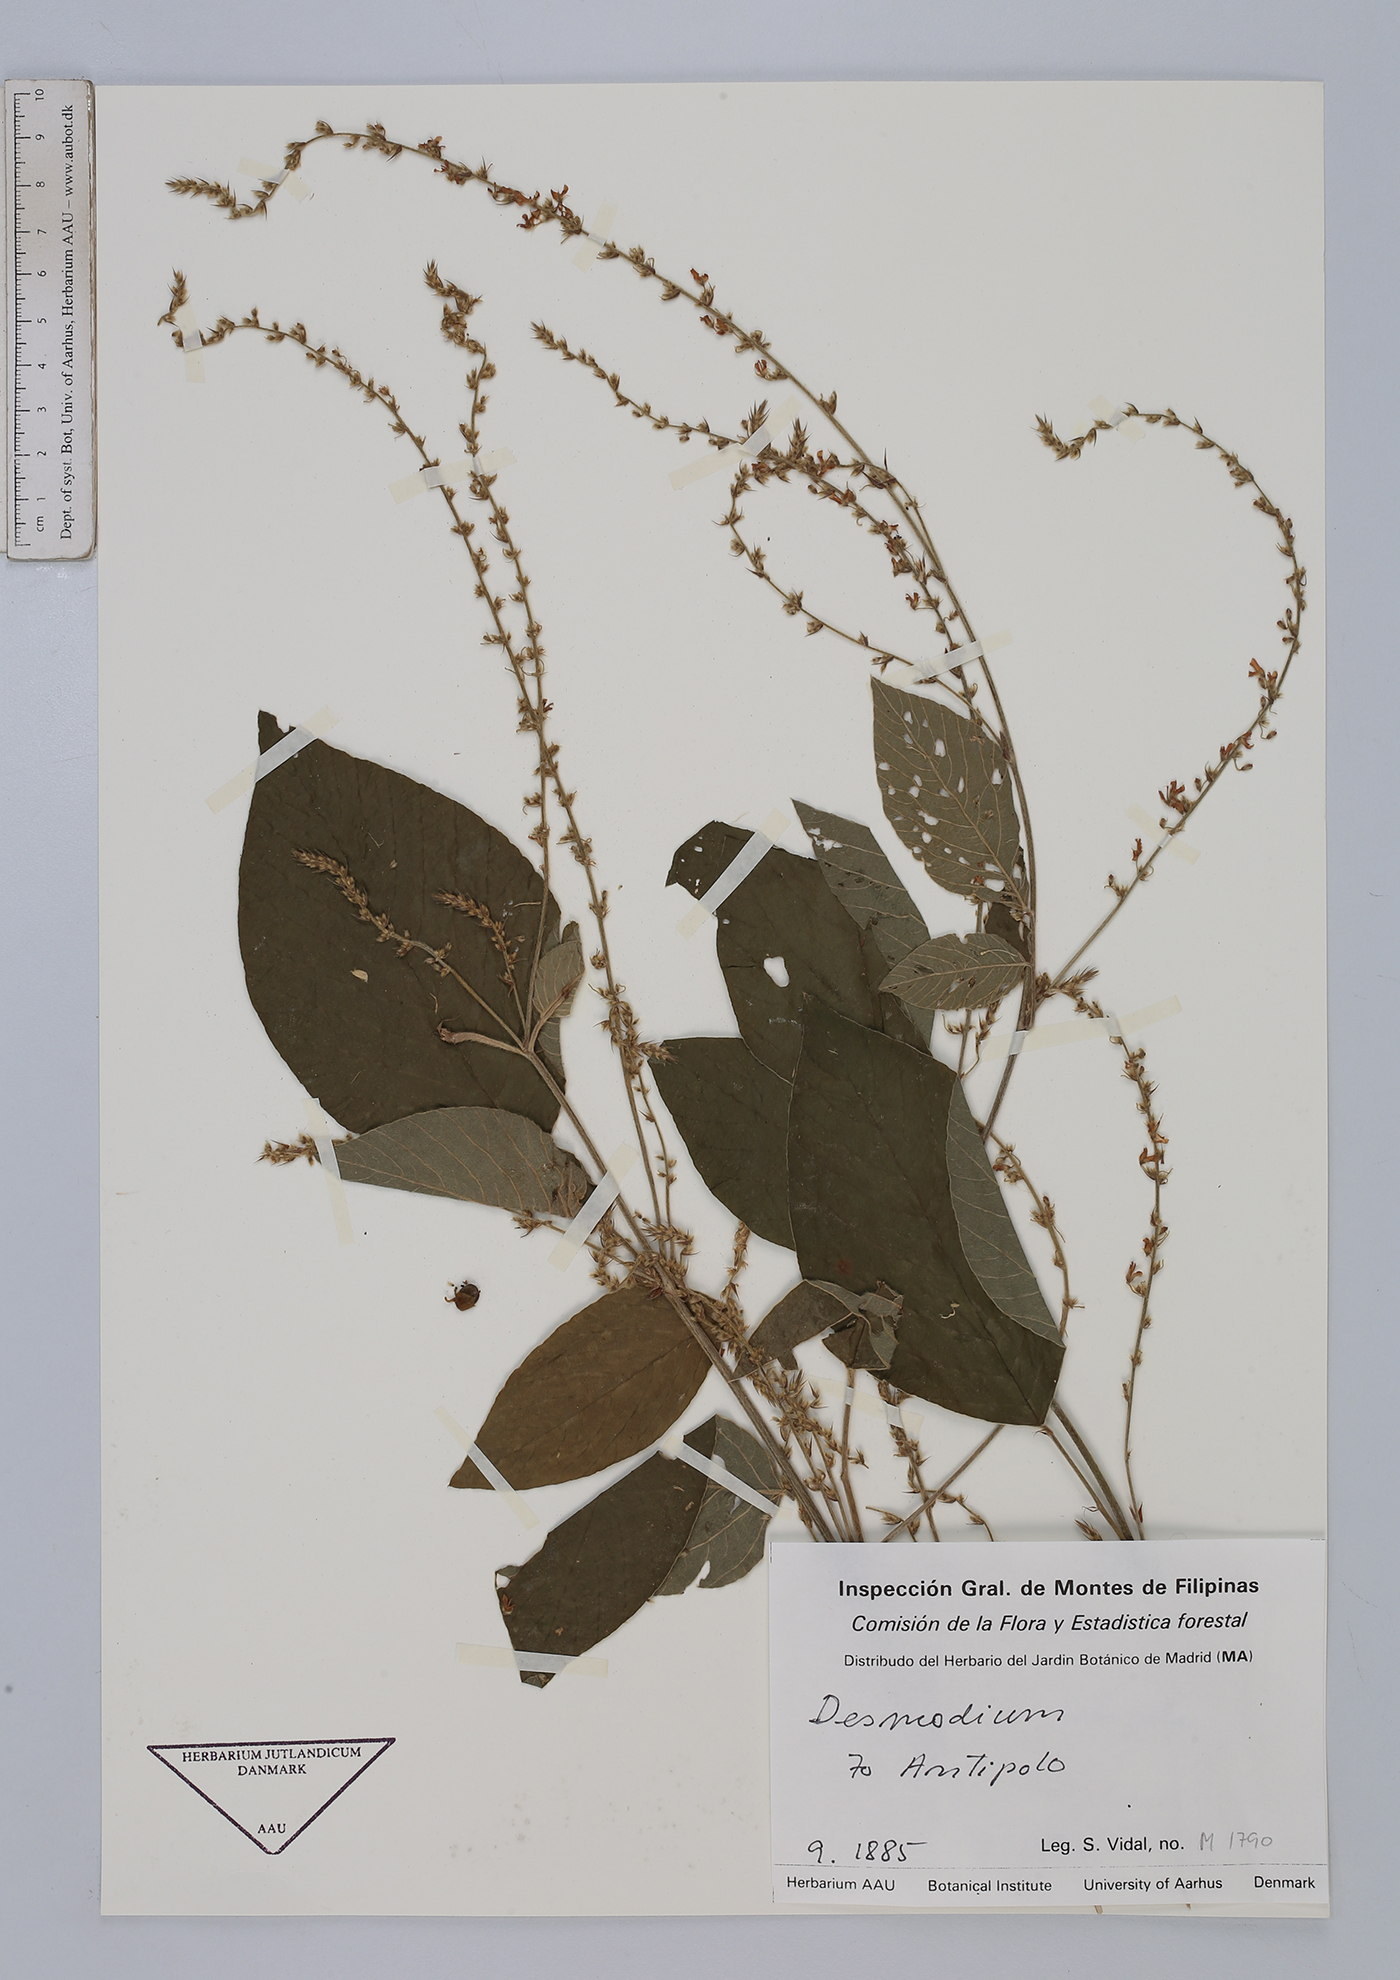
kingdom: Plantae
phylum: Tracheophyta
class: Magnoliopsida
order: Fabales
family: Fabaceae
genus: Desmodium
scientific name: Desmodium
